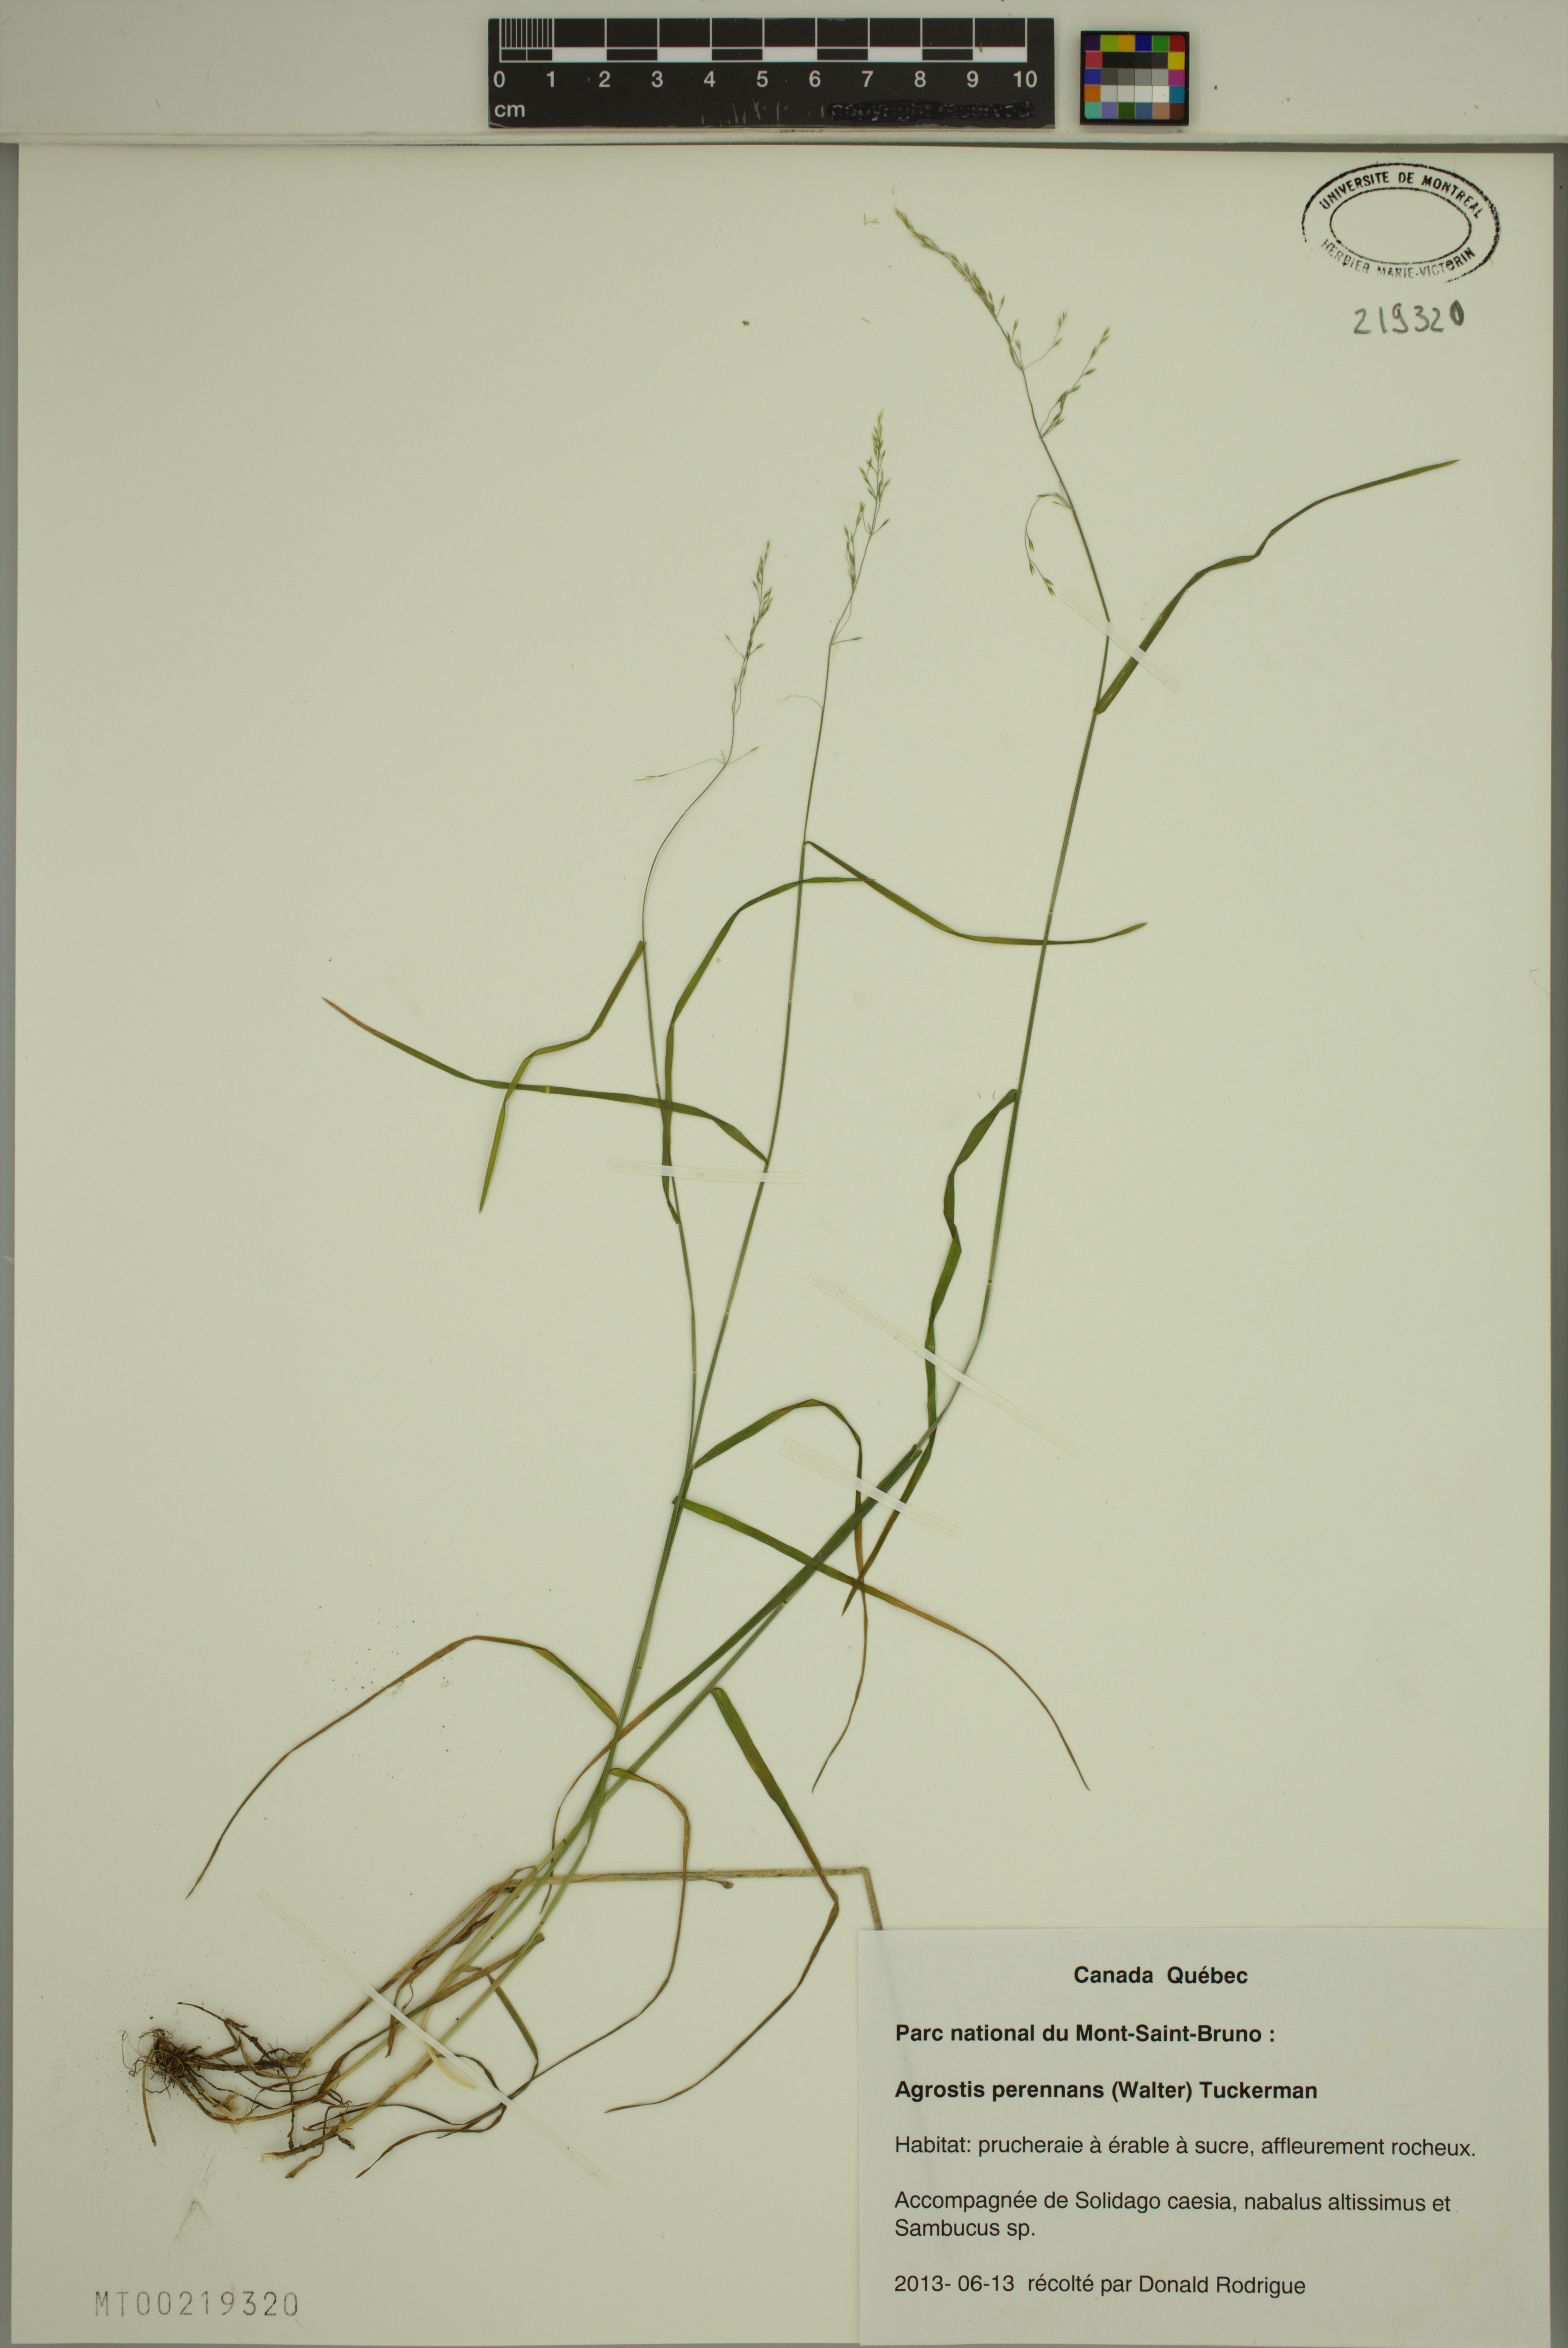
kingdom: Plantae
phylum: Tracheophyta
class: Liliopsida
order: Poales
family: Poaceae
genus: Agrostis
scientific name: Agrostis perennans
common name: Autumn bent
